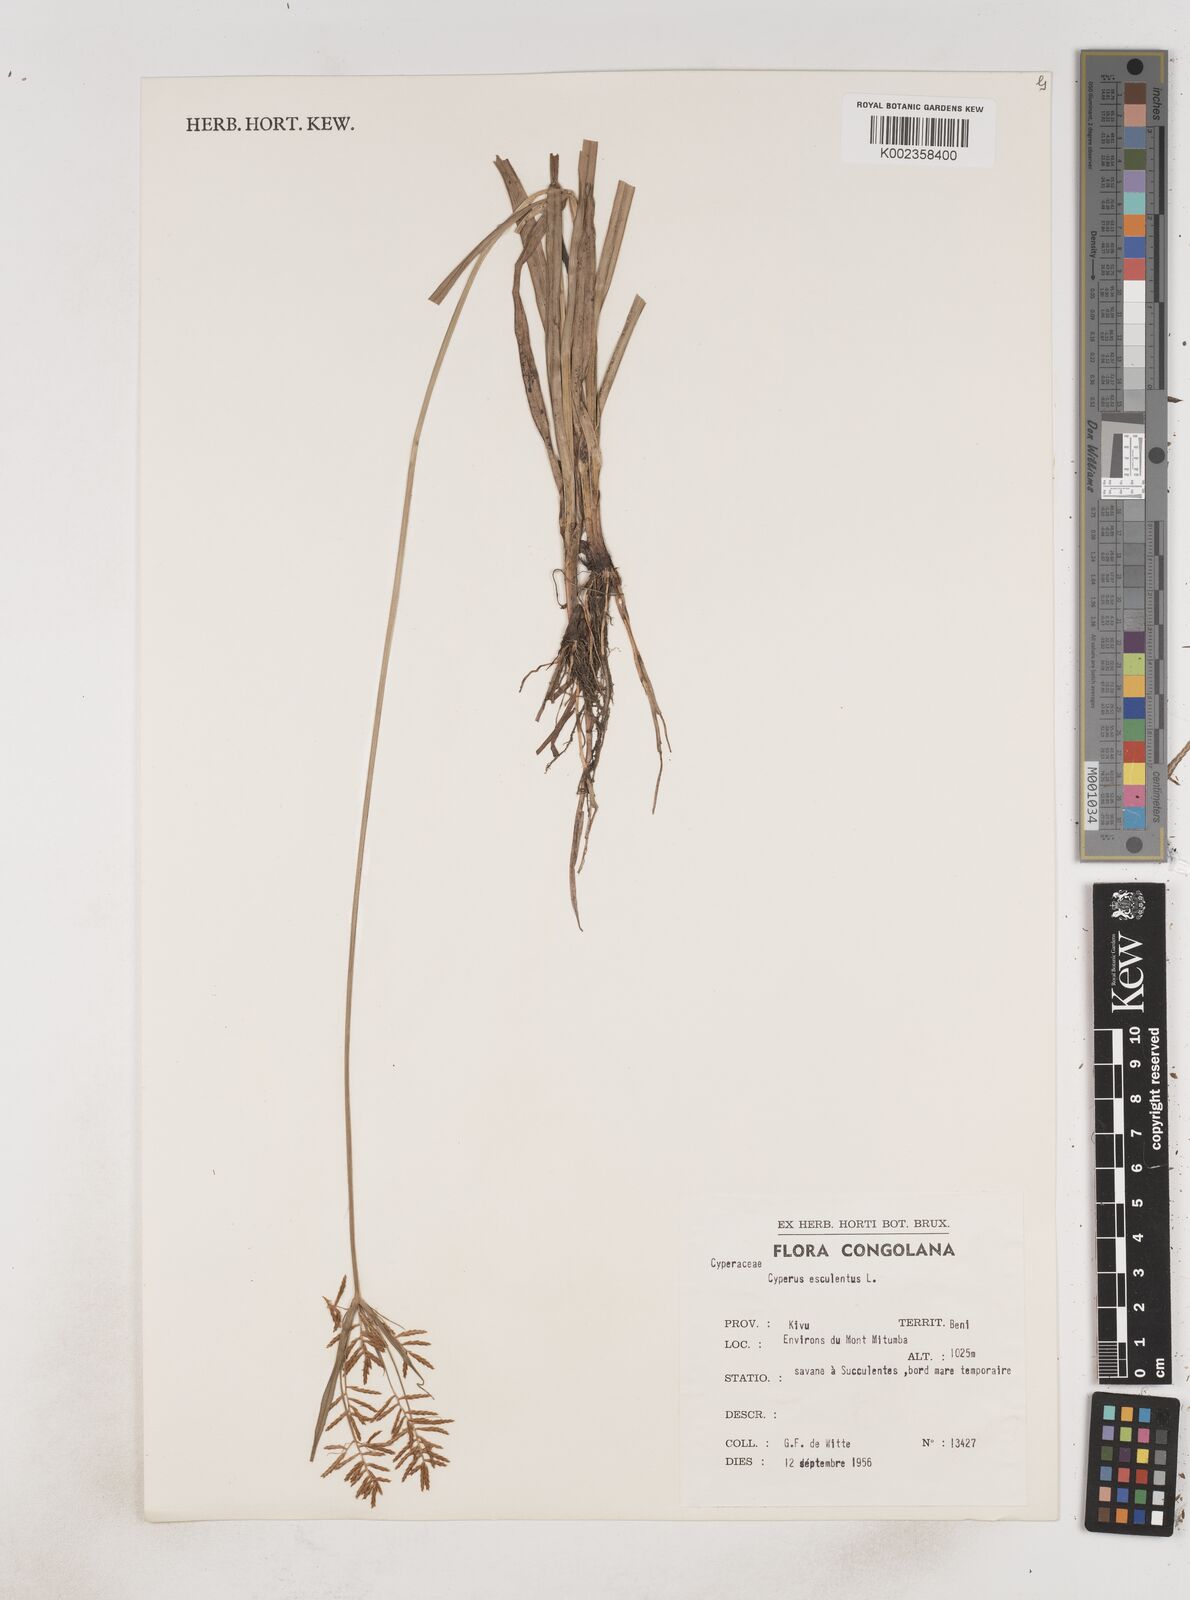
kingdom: Plantae
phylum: Tracheophyta
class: Liliopsida
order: Poales
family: Cyperaceae
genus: Cyperus
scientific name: Cyperus esculentus
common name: Yellow nutsedge
